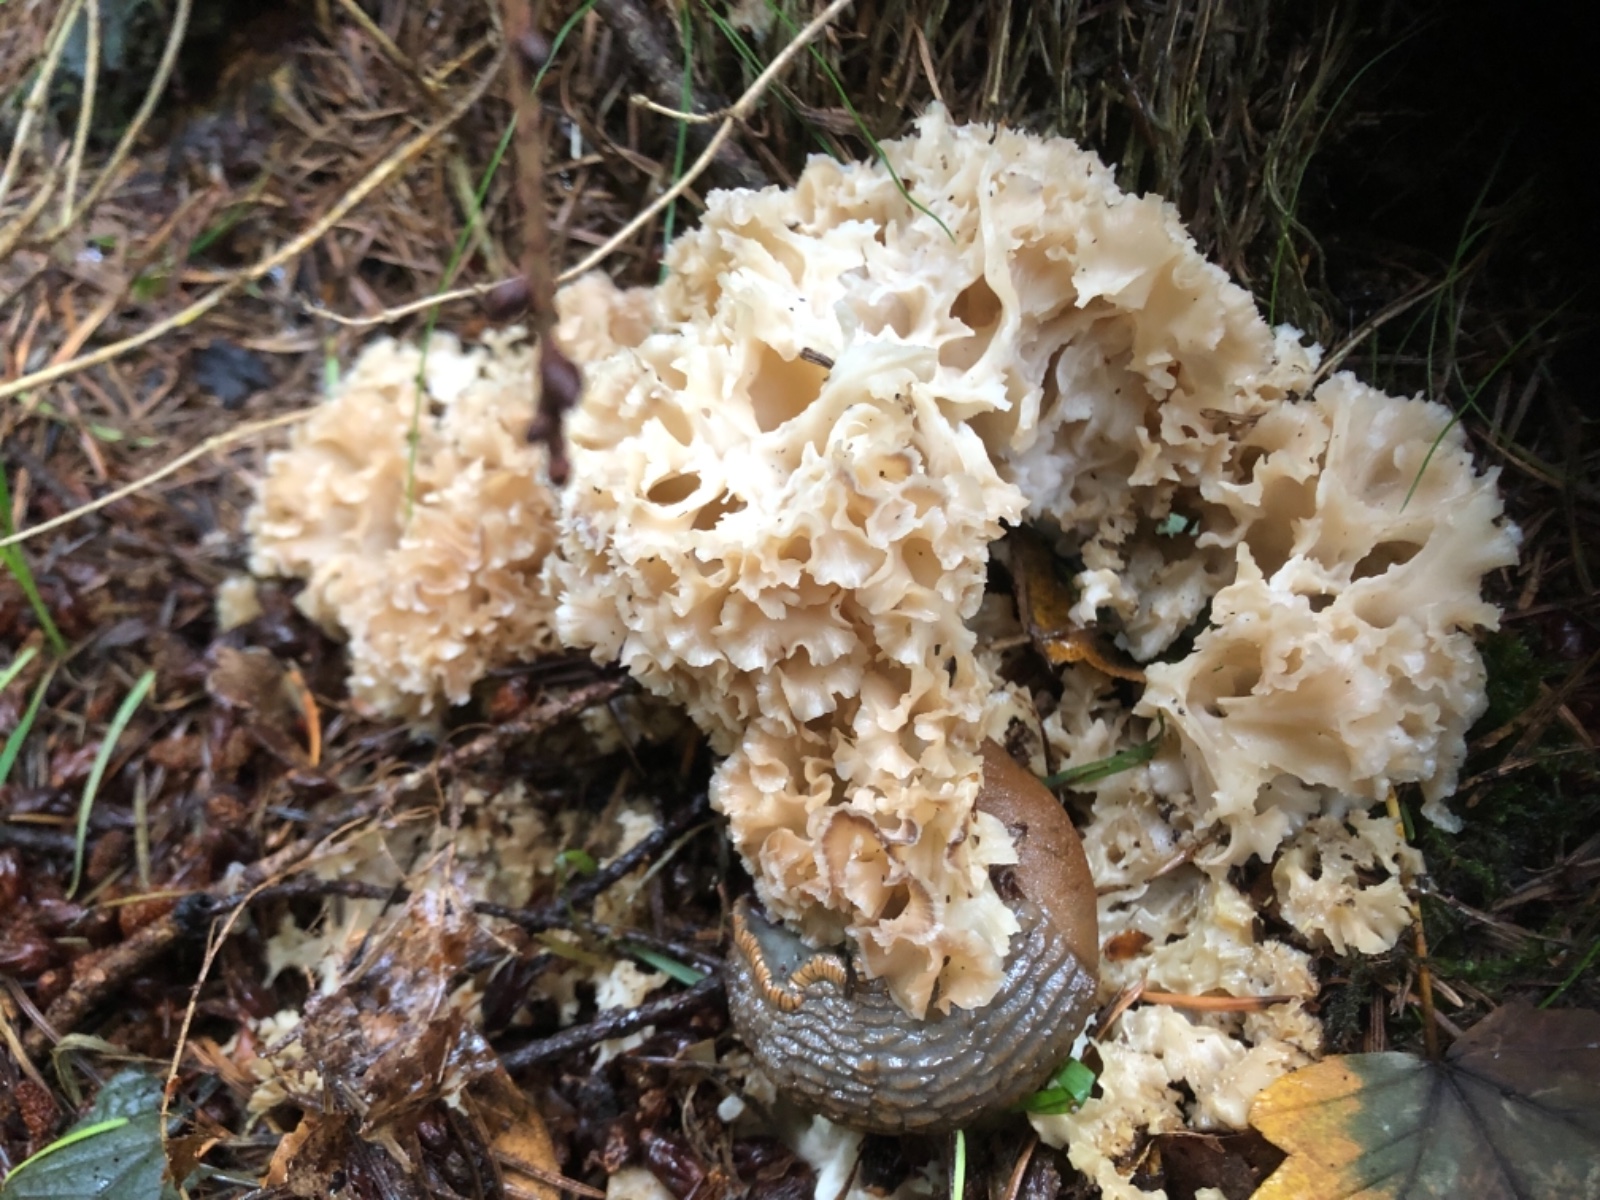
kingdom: Fungi
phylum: Basidiomycota
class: Agaricomycetes
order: Polyporales
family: Sparassidaceae
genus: Sparassis
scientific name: Sparassis crispa
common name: kruset blomkålssvamp
